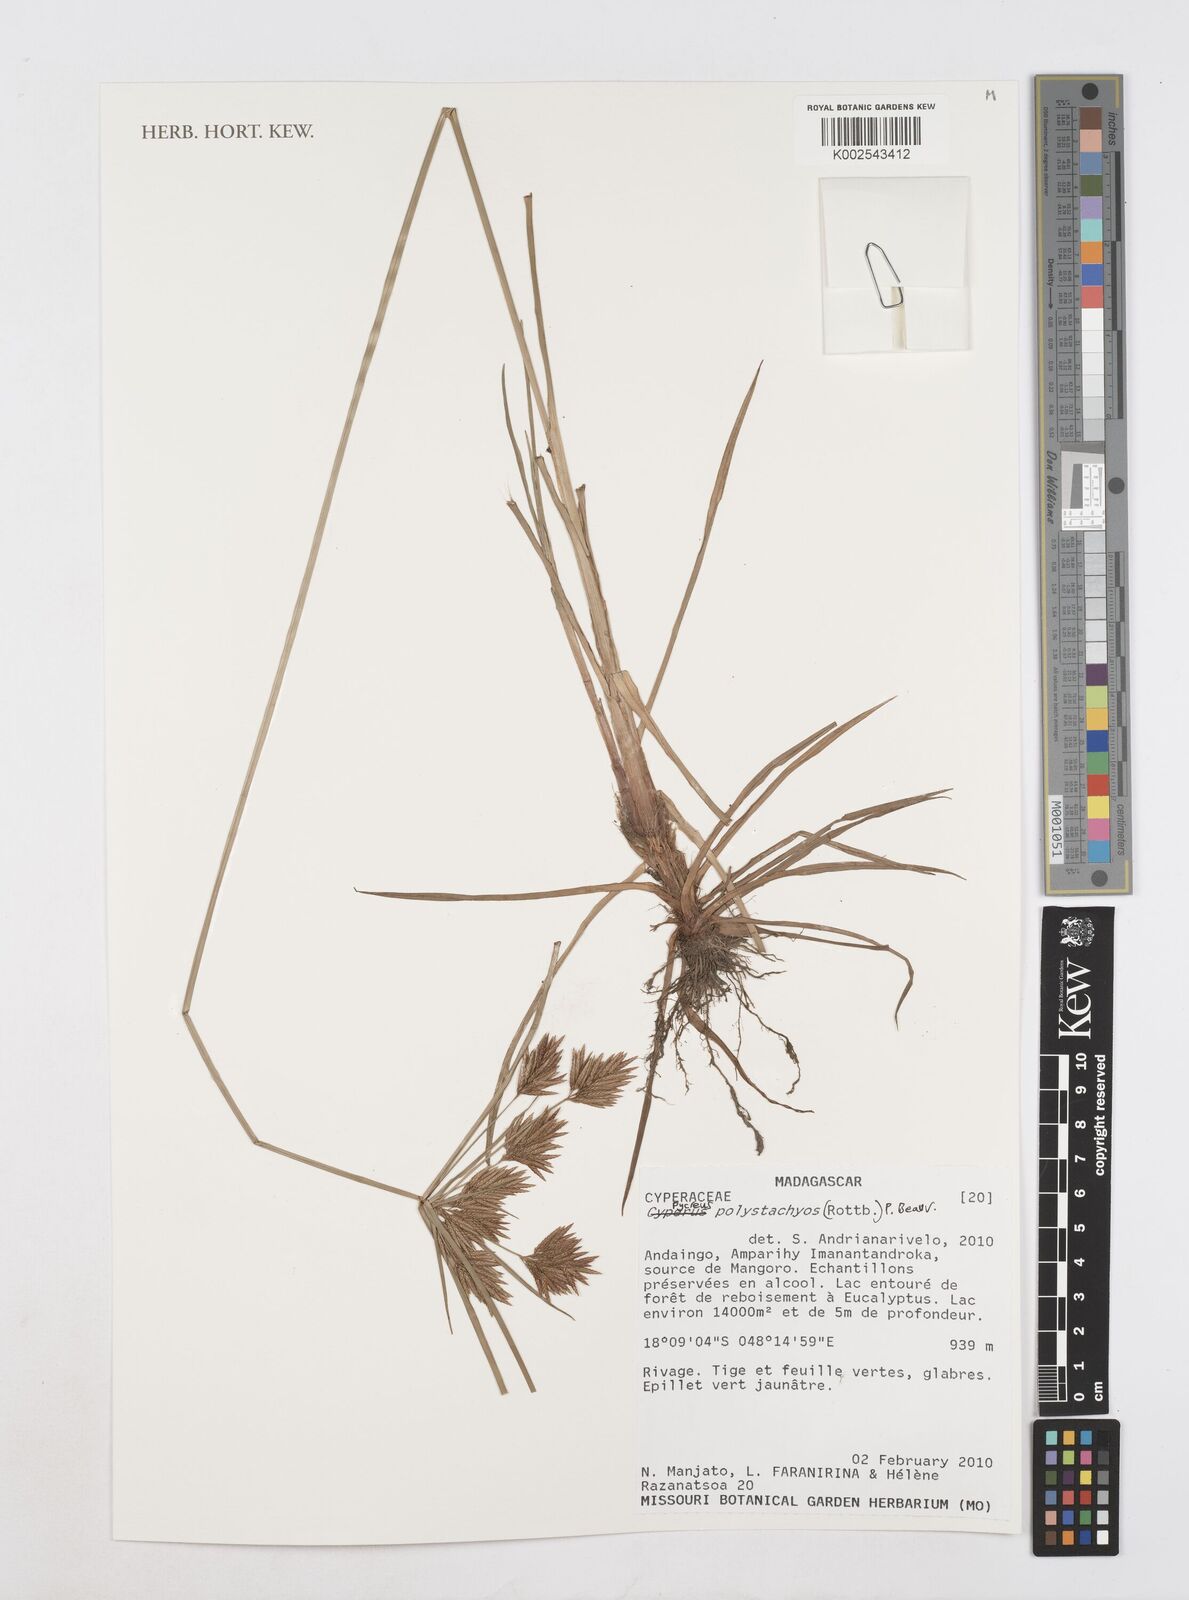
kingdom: Plantae
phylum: Tracheophyta
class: Liliopsida
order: Poales
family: Cyperaceae
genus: Cyperus
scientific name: Cyperus polystachyos
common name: Bunchy flat sedge
